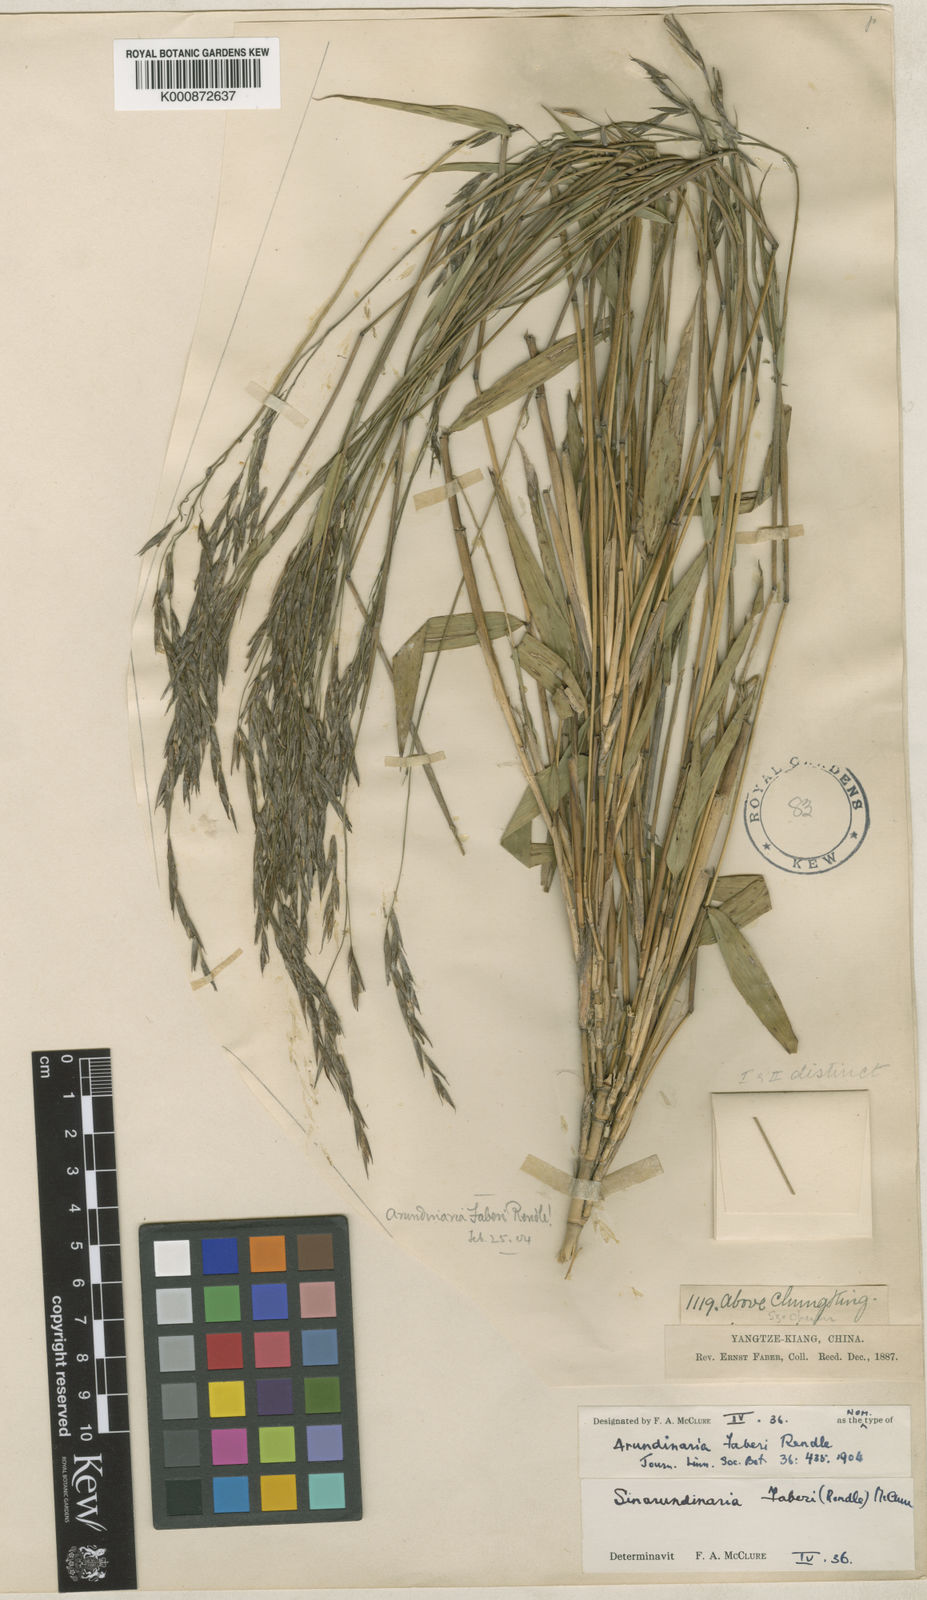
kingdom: Plantae
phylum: Tracheophyta
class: Liliopsida
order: Poales
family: Poaceae
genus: Sarocalamus
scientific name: Sarocalamus faberi
